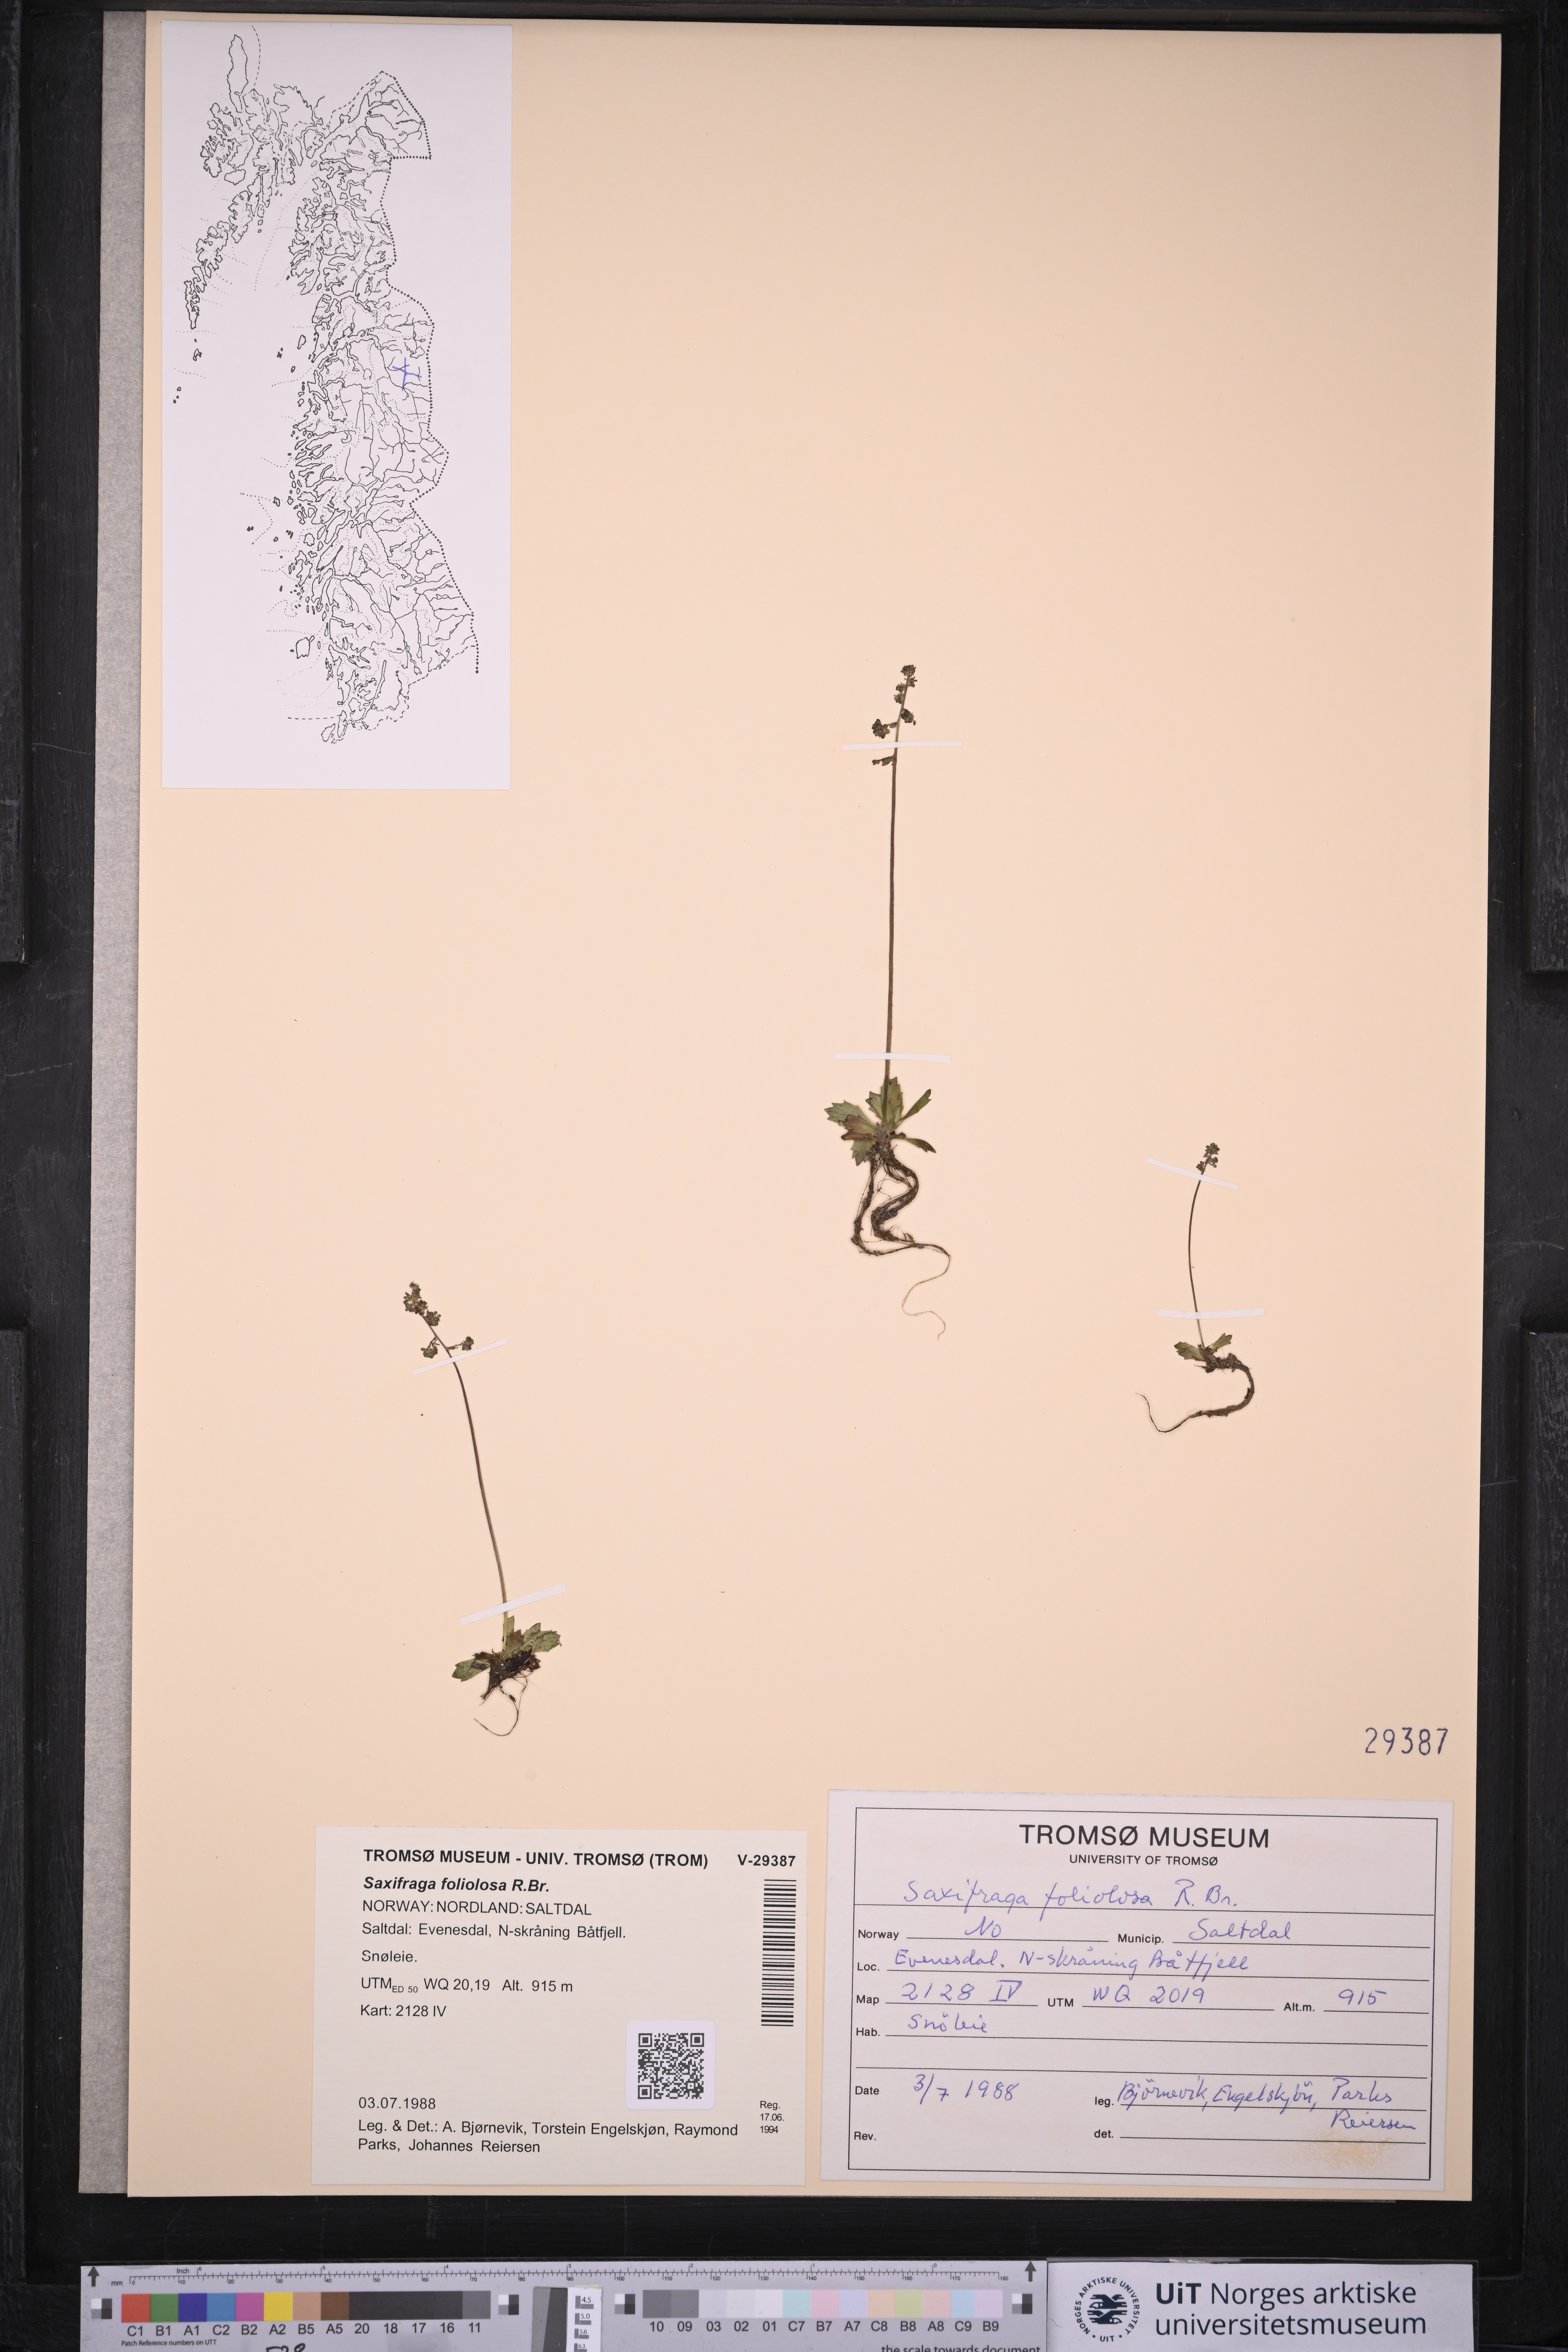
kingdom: Plantae
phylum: Tracheophyta
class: Magnoliopsida
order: Saxifragales
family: Saxifragaceae
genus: Micranthes
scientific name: Micranthes foliolosa
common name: Leafystem saxifrage
